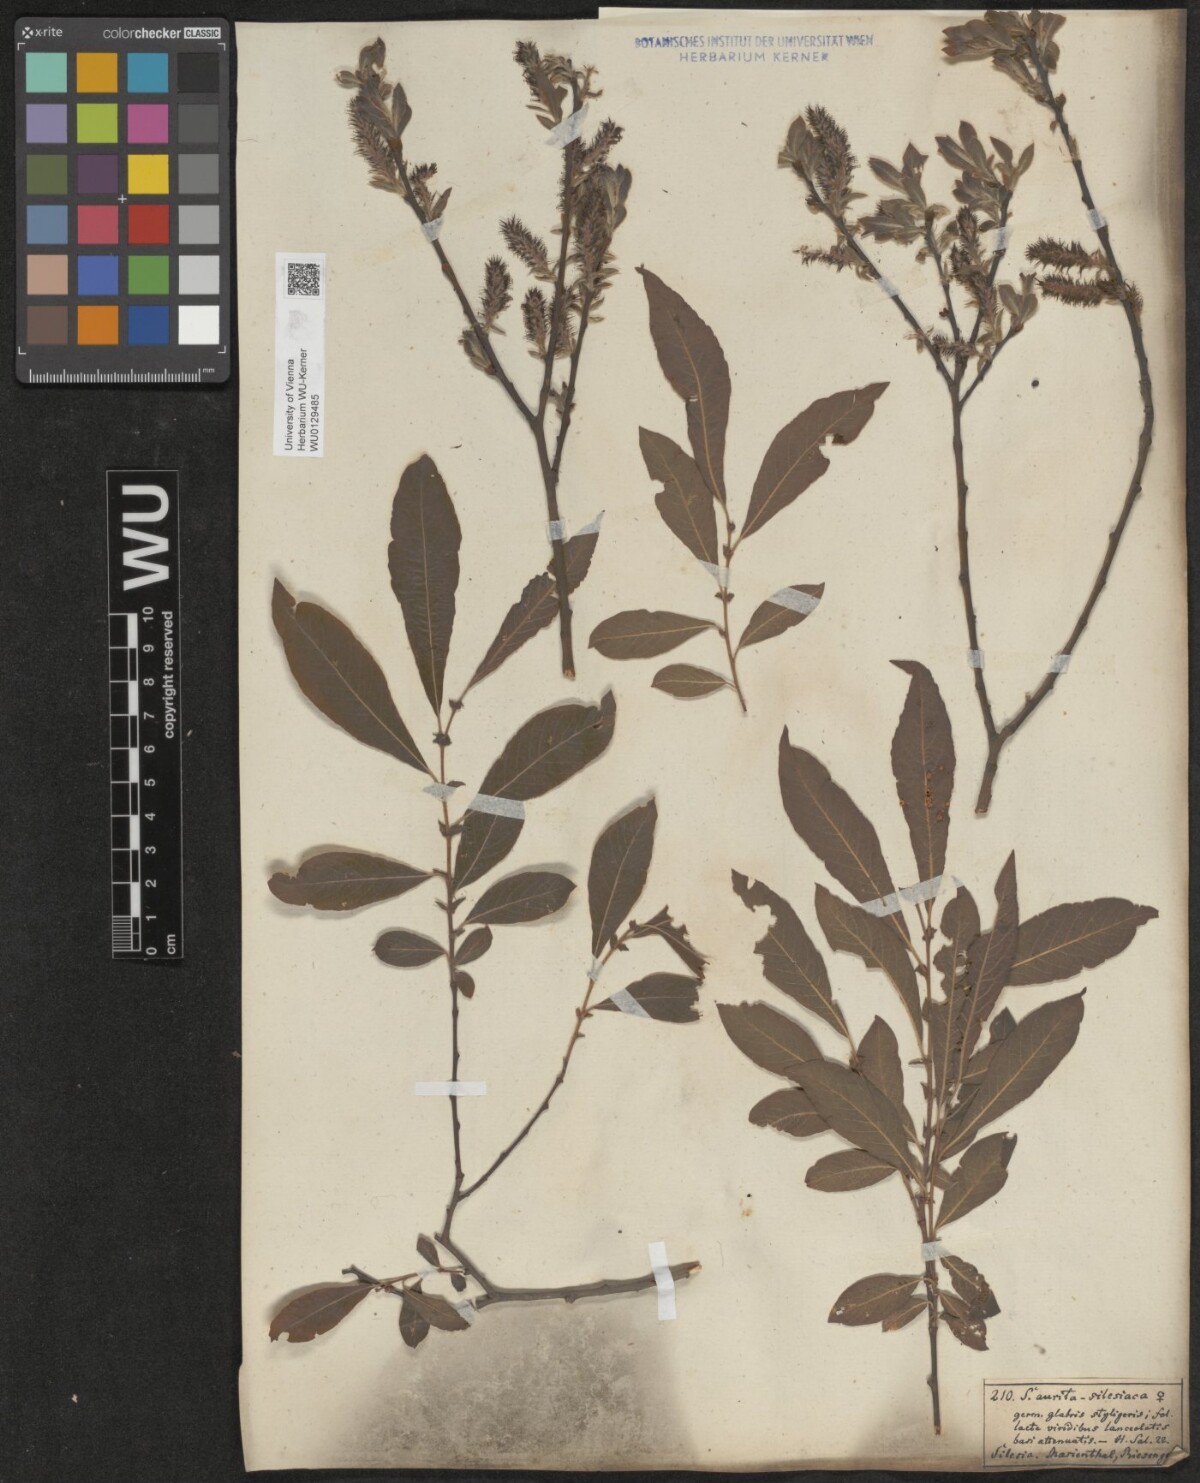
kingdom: Plantae
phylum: Tracheophyta
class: Magnoliopsida
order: Malpighiales
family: Salicaceae
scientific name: Salicaceae
